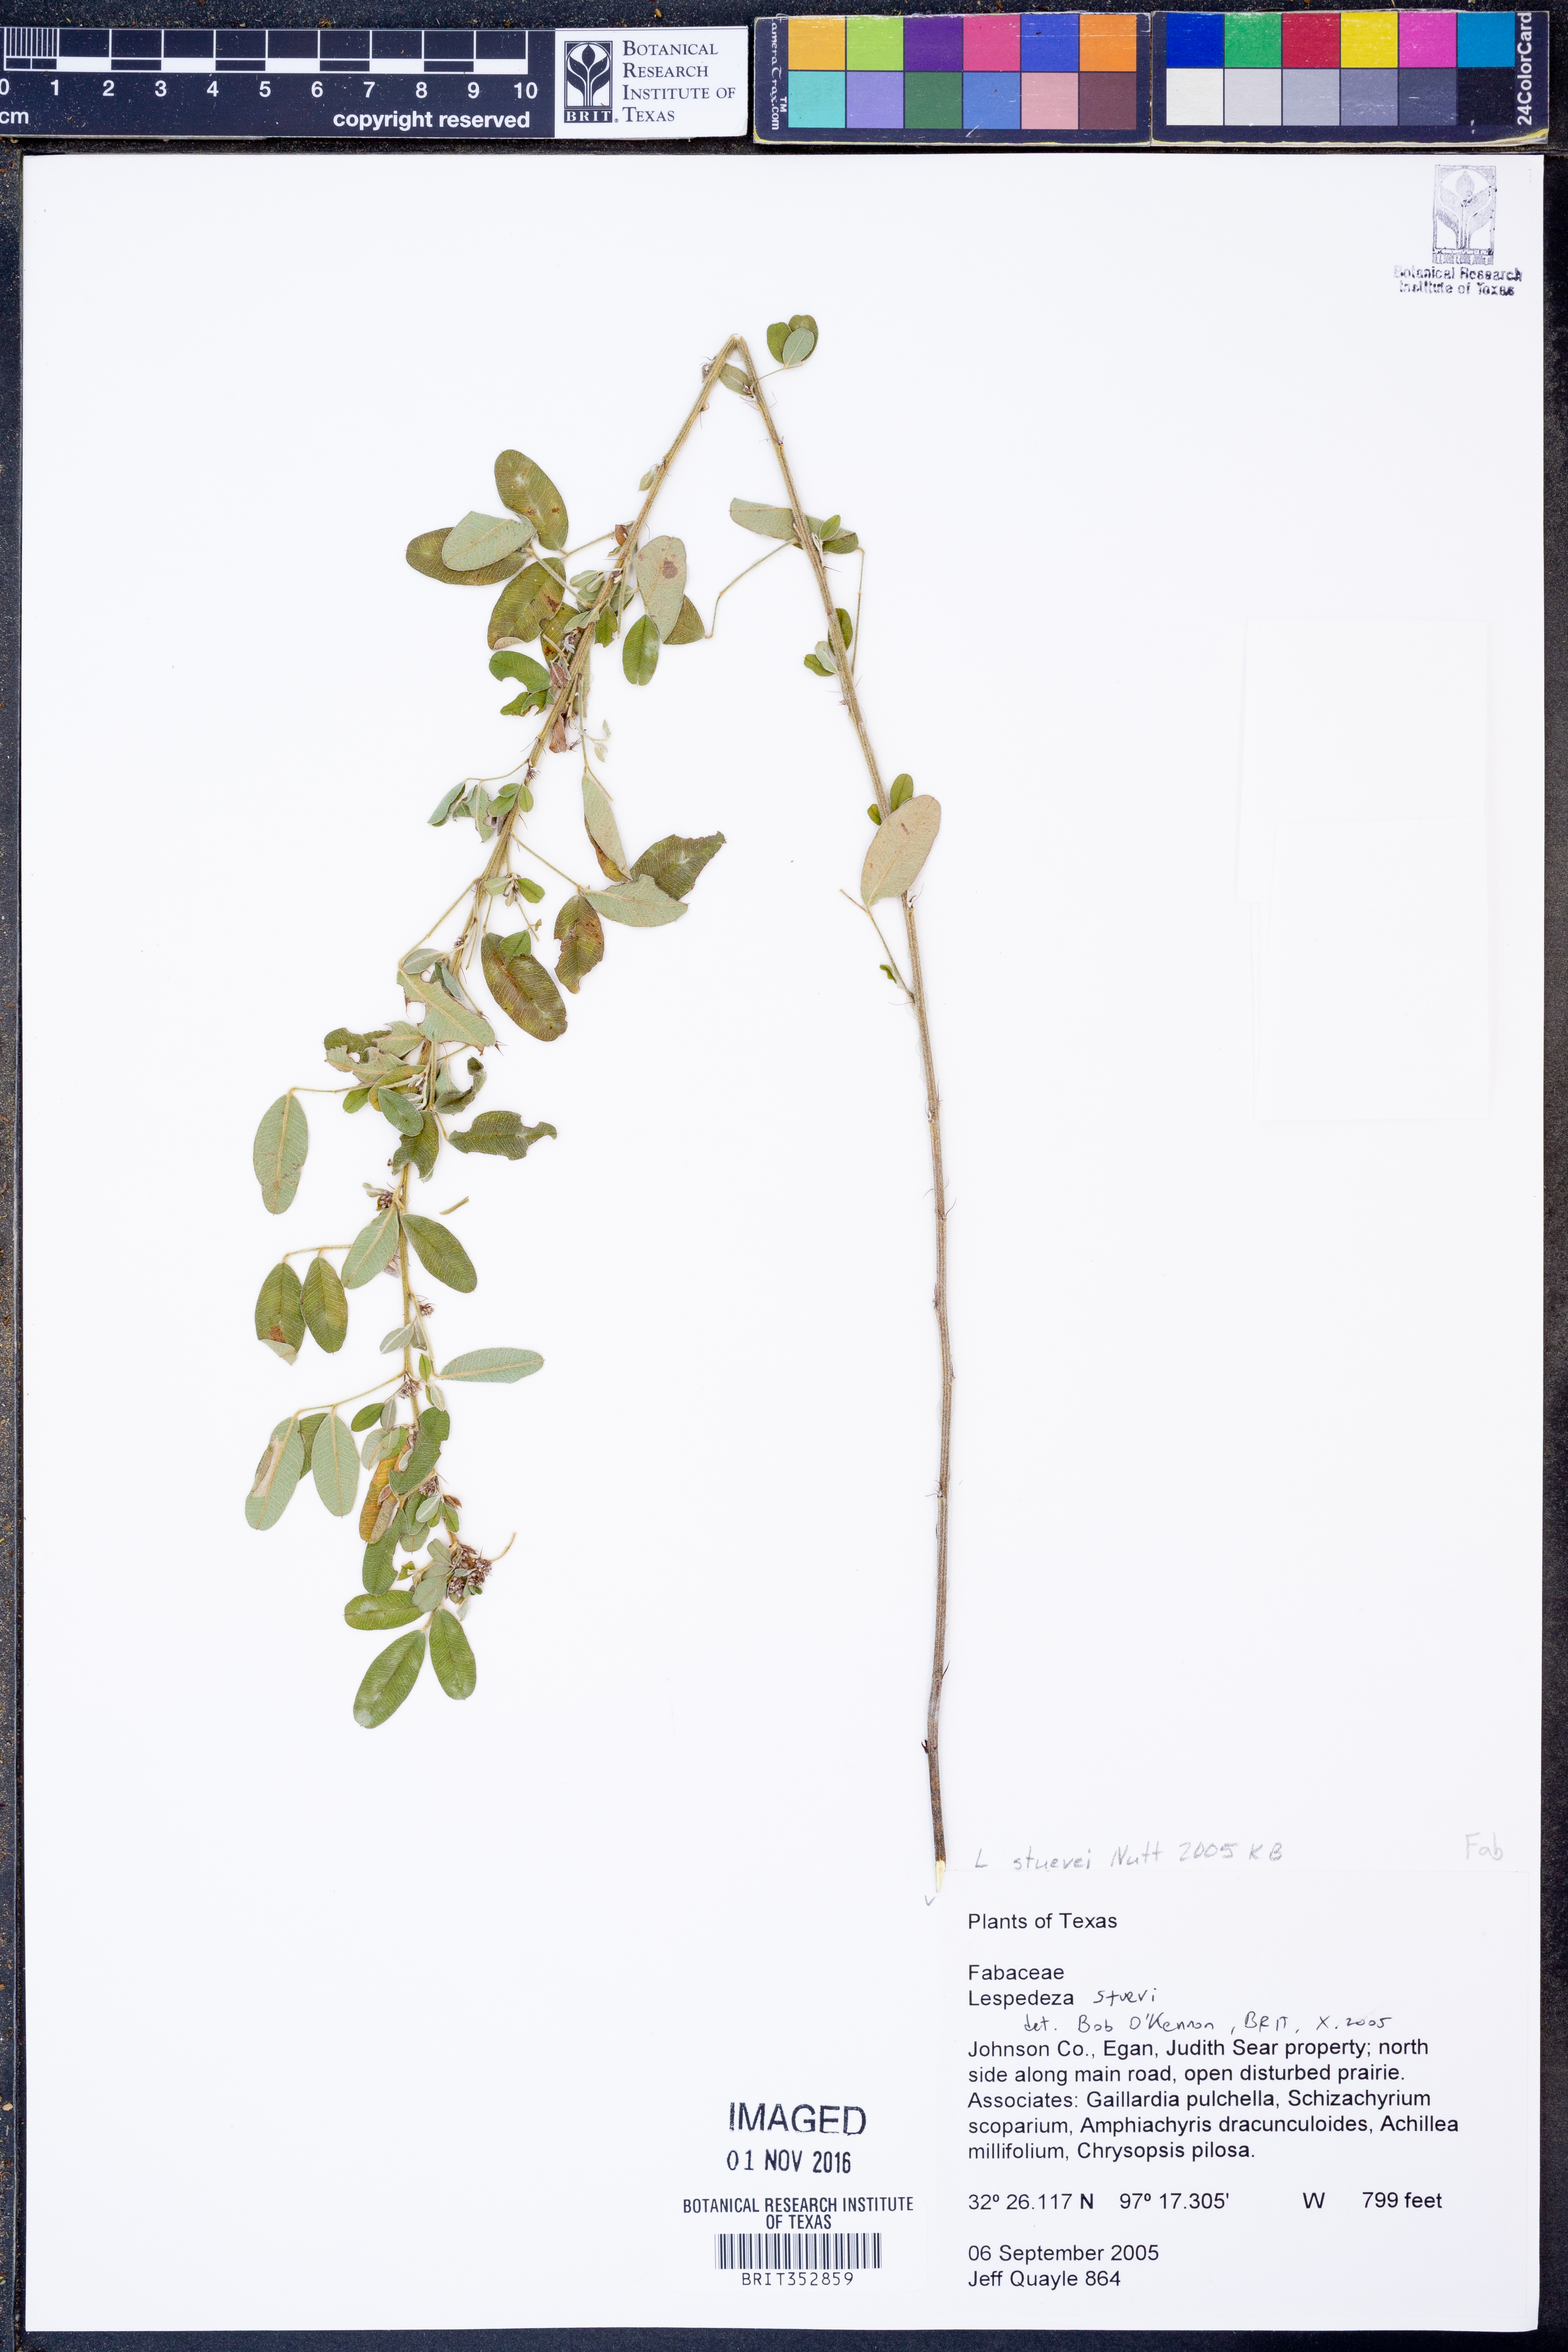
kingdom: Plantae
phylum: Tracheophyta
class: Magnoliopsida
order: Fabales
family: Fabaceae
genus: Lespedeza
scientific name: Lespedeza stuevei
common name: Tall bush-clover
